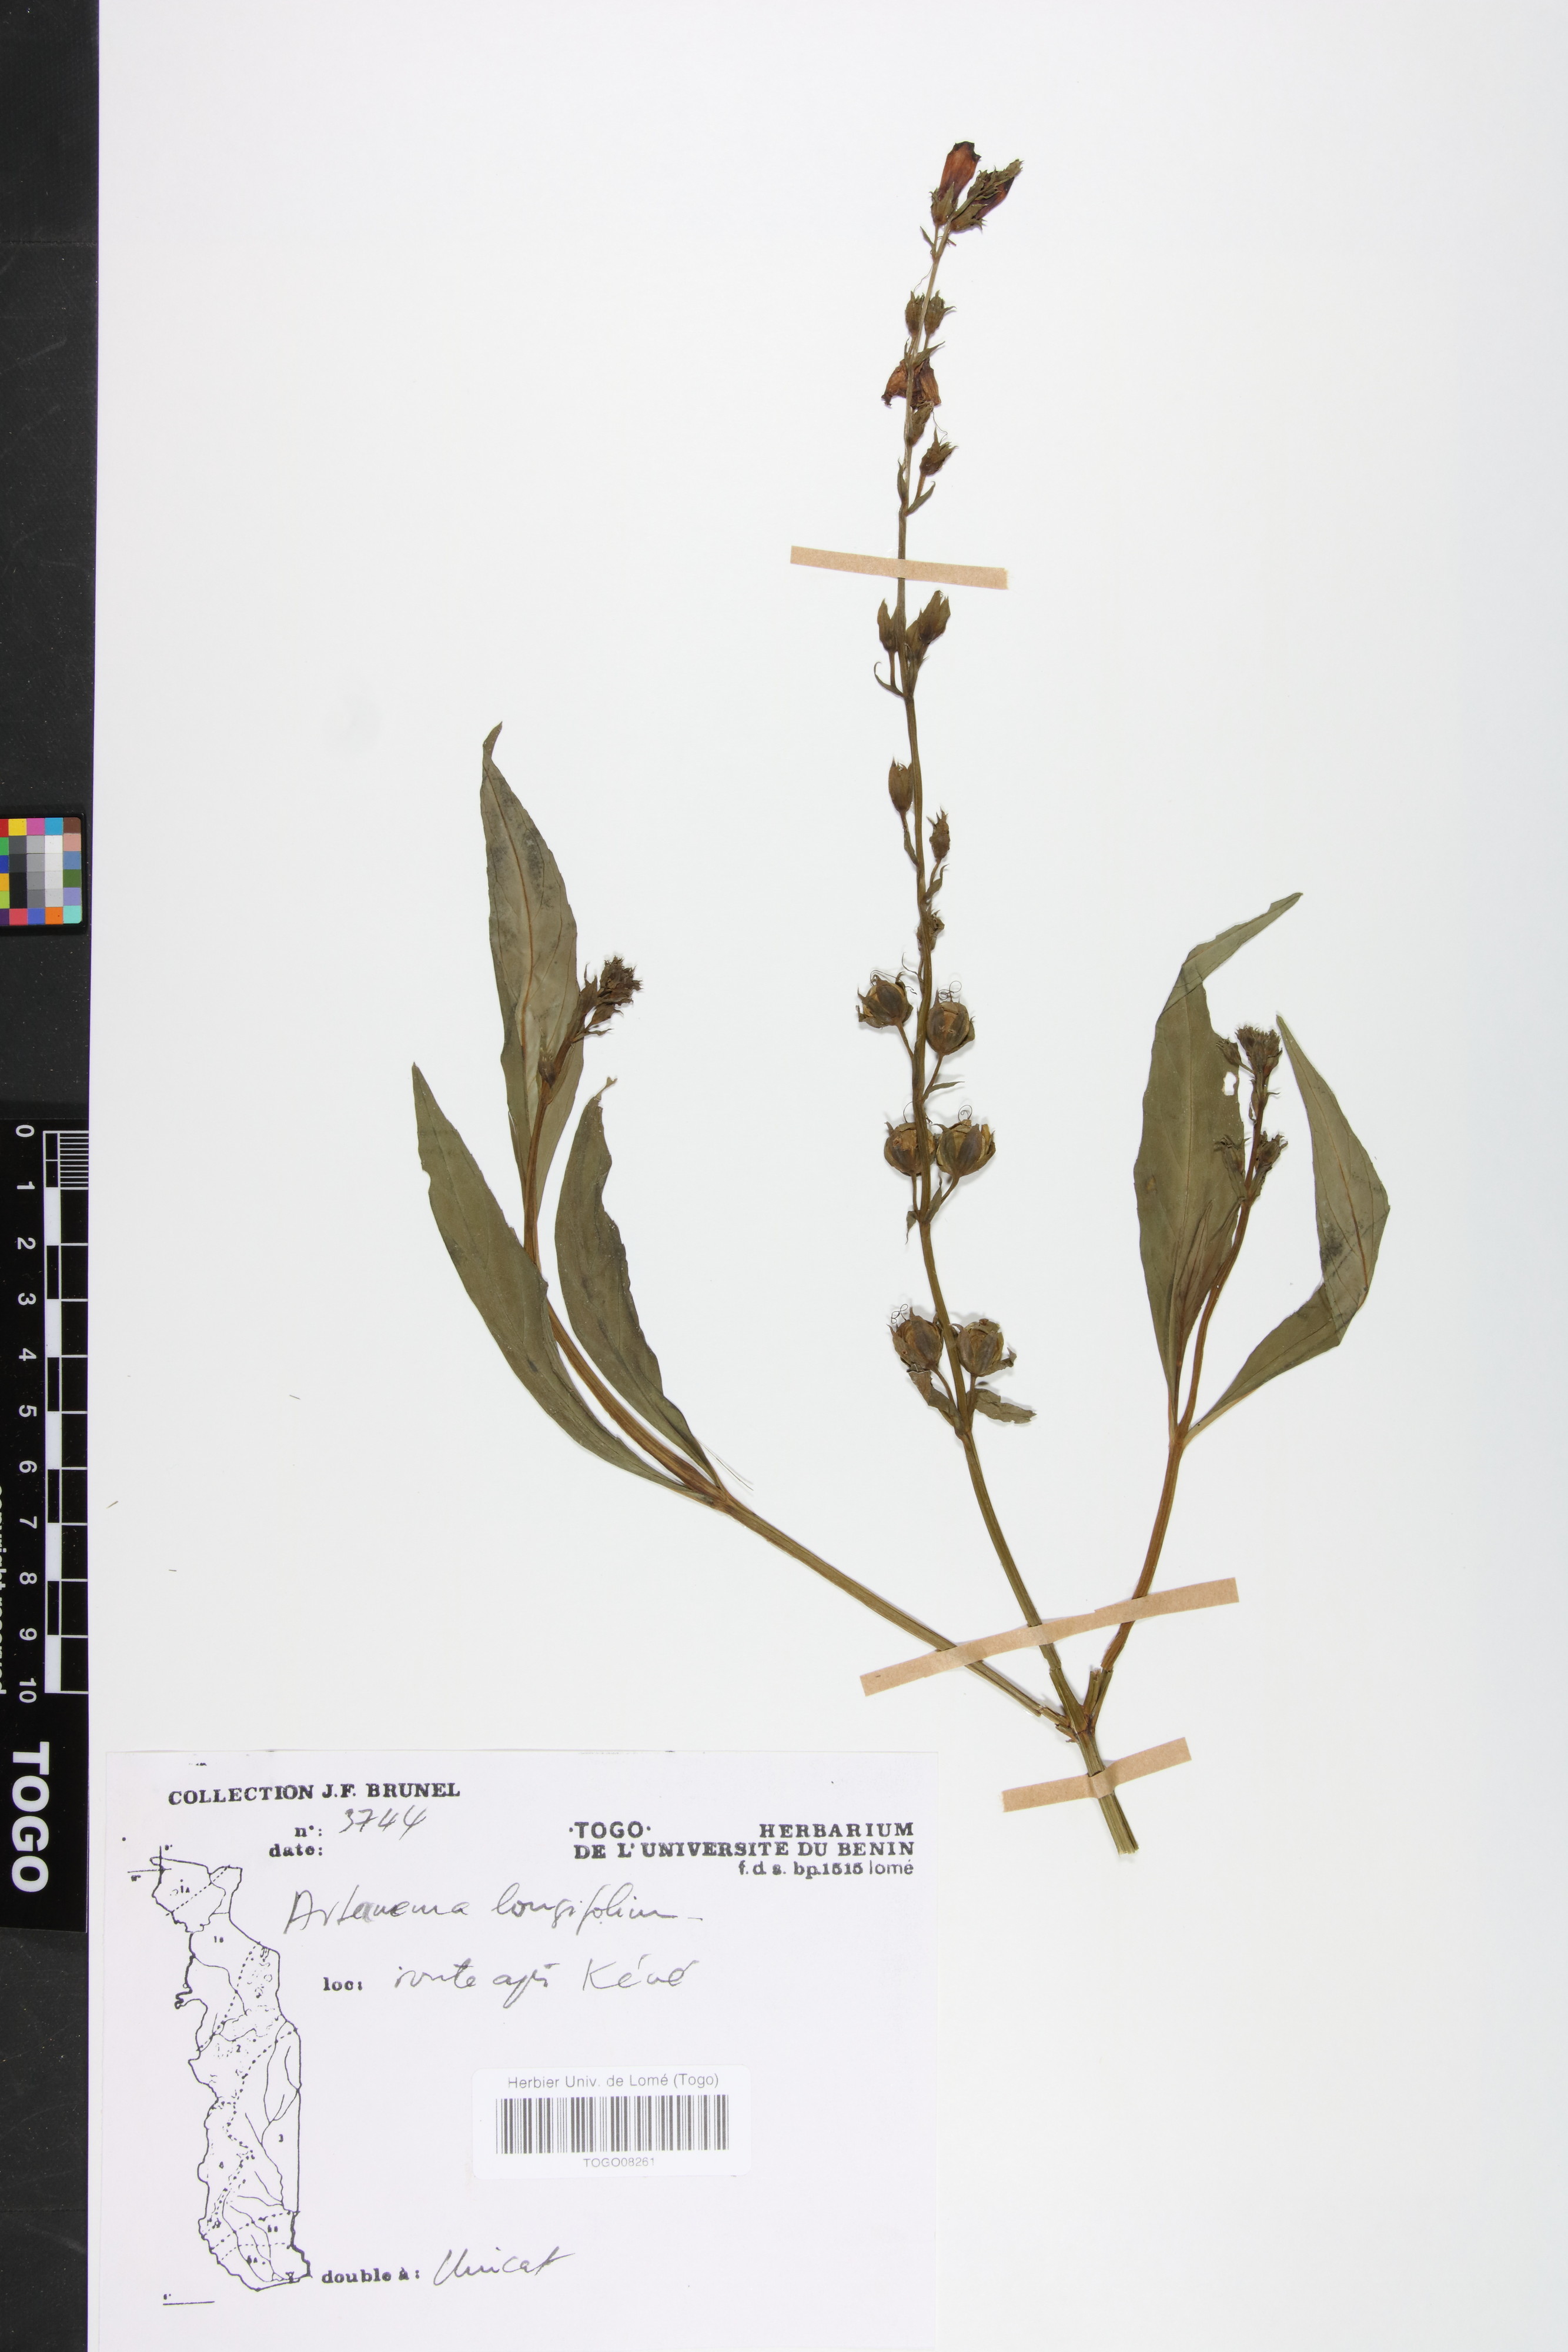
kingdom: Plantae
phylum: Tracheophyta
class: Magnoliopsida
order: Lamiales
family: Linderniaceae
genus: Artanema
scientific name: Artanema longifolium
